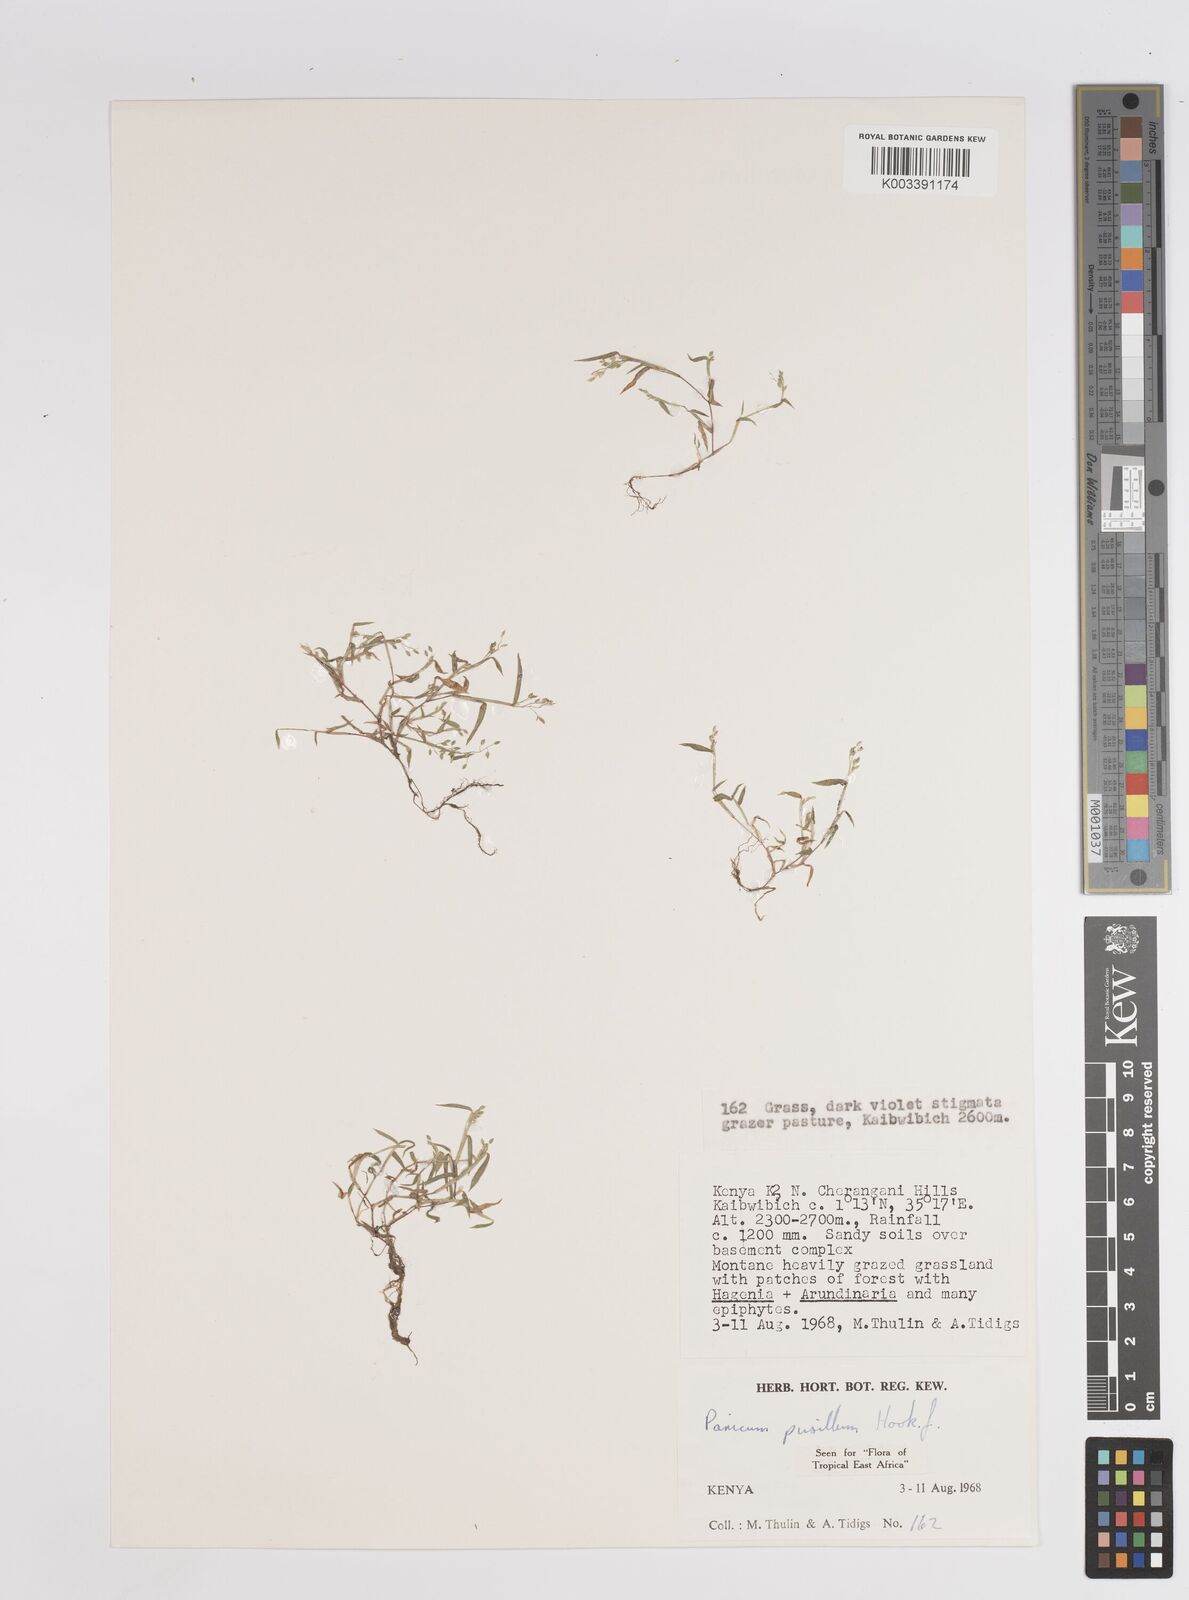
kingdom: Plantae
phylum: Tracheophyta
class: Liliopsida
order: Poales
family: Poaceae
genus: Panicum
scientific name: Panicum pusillum
